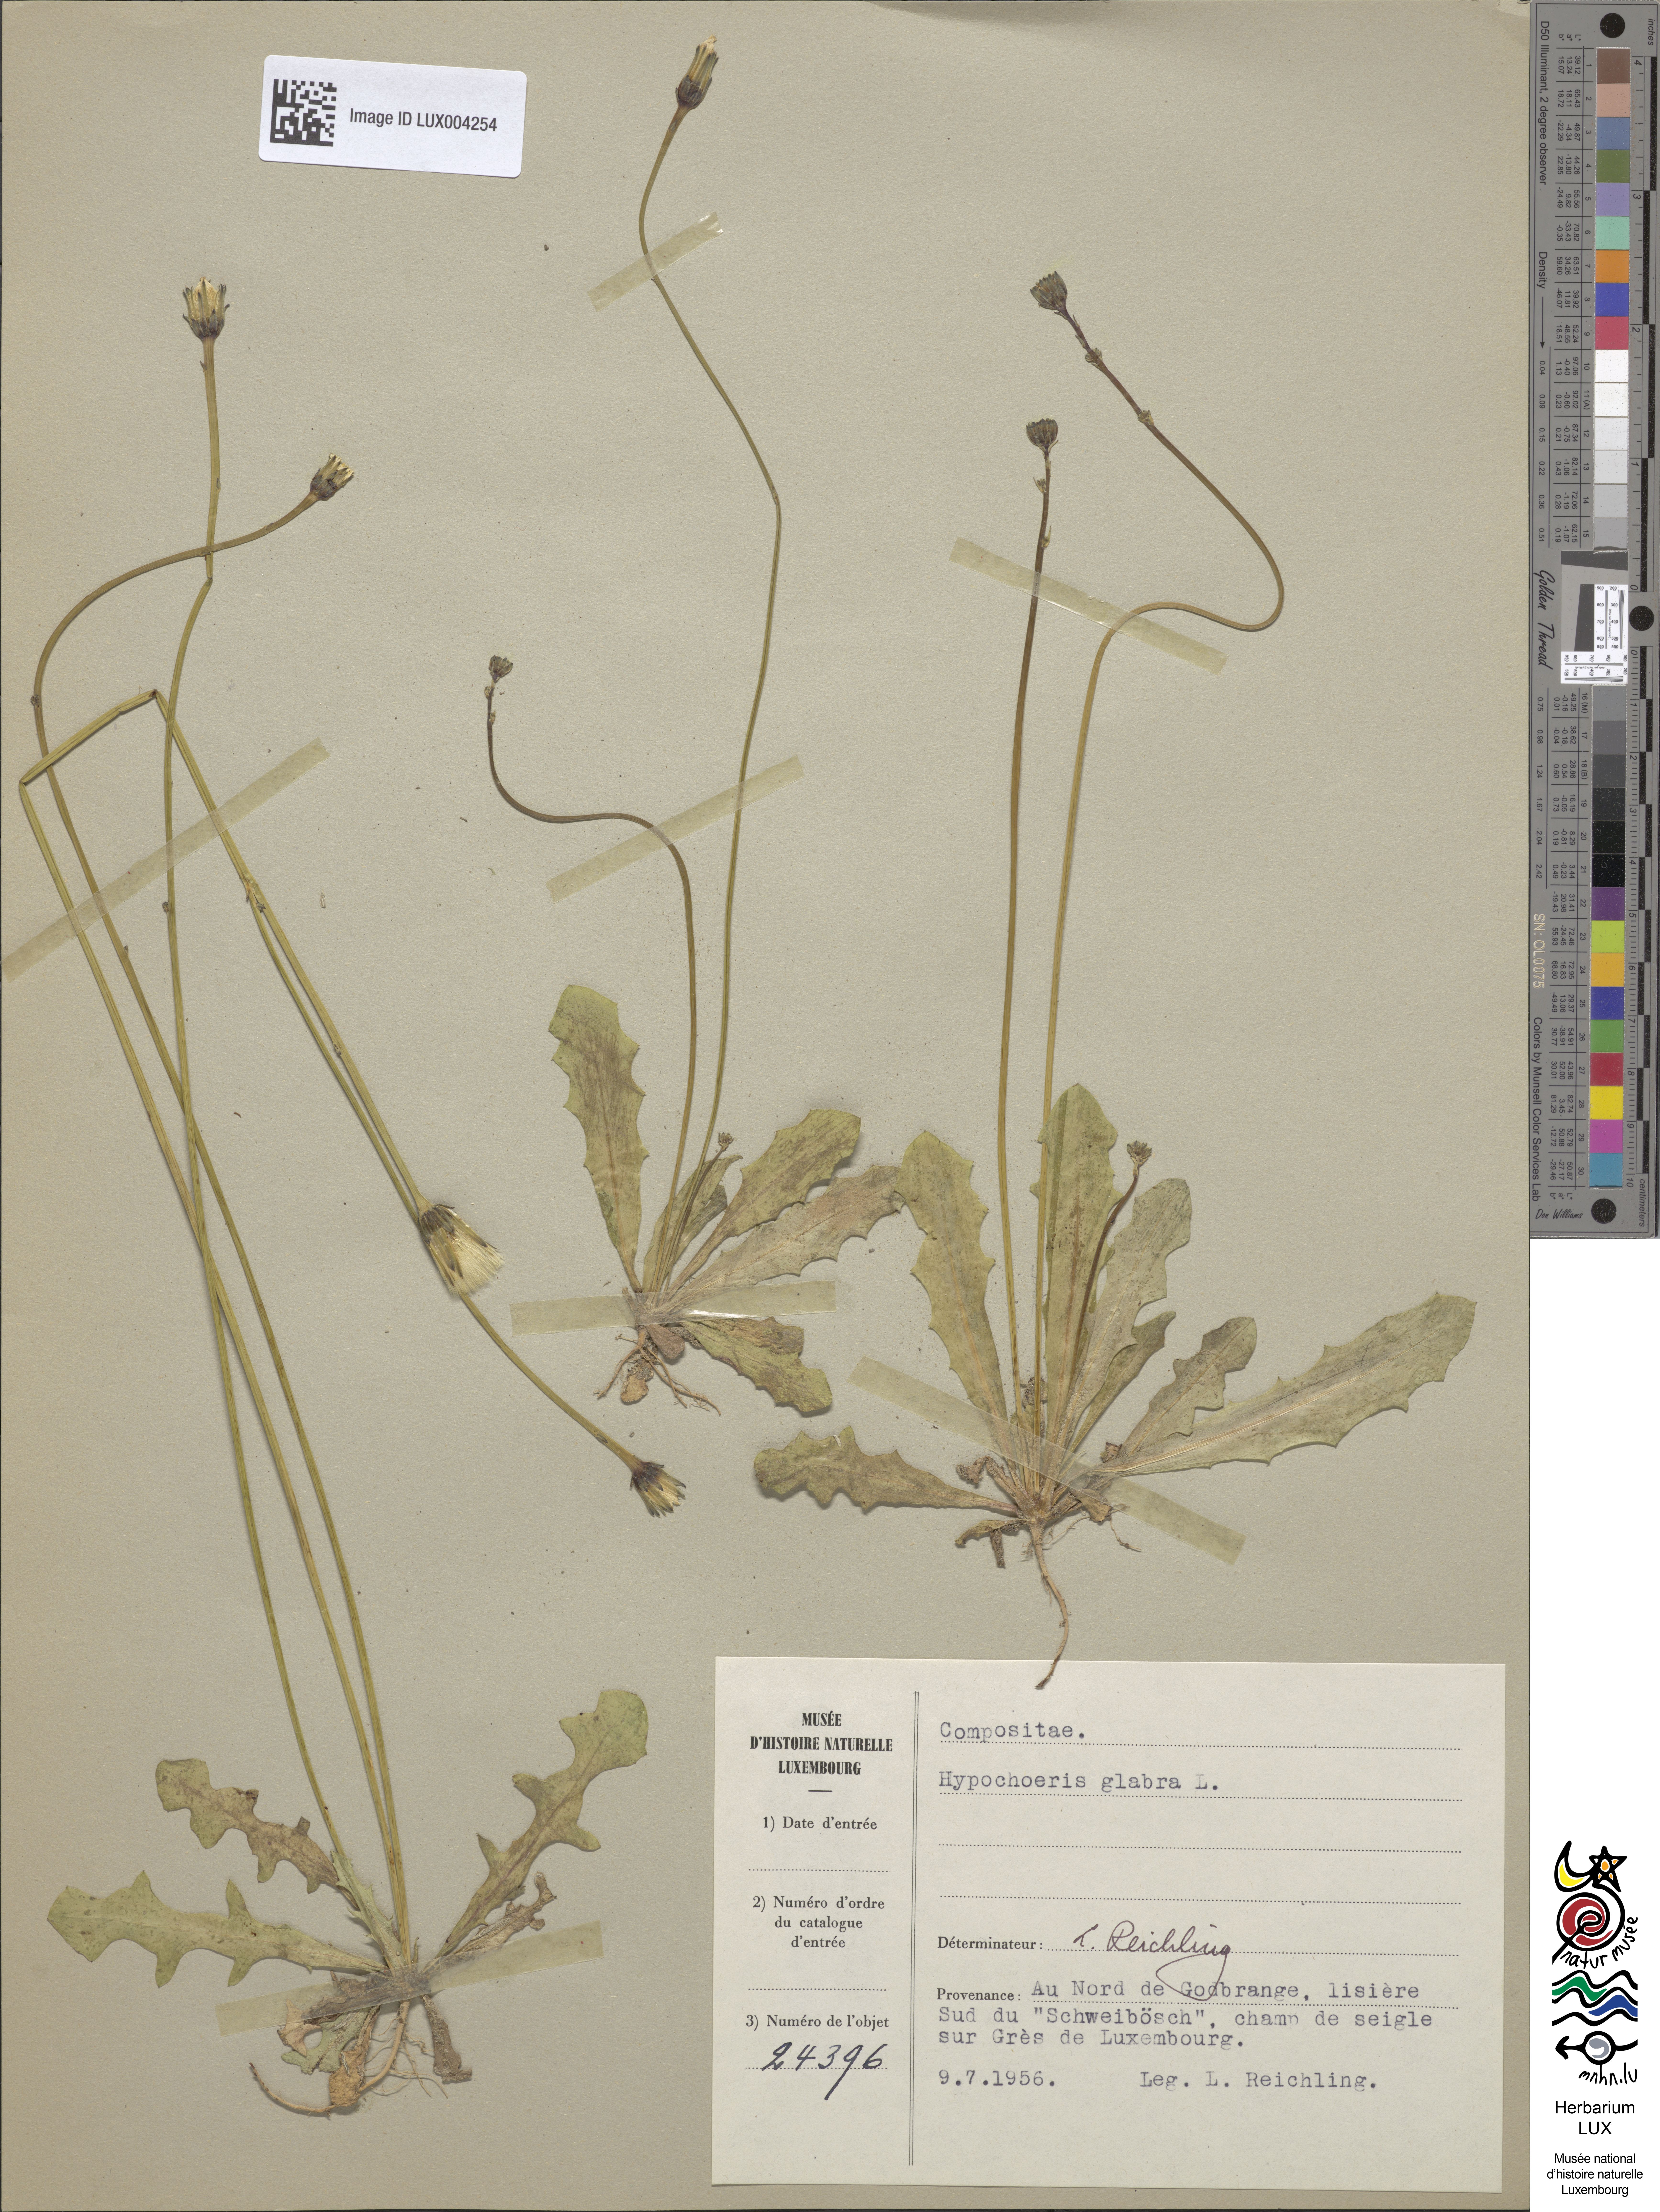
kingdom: Plantae
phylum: Tracheophyta
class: Magnoliopsida
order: Asterales
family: Asteraceae
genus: Hypochoeris
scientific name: Hypochoeris glabra
